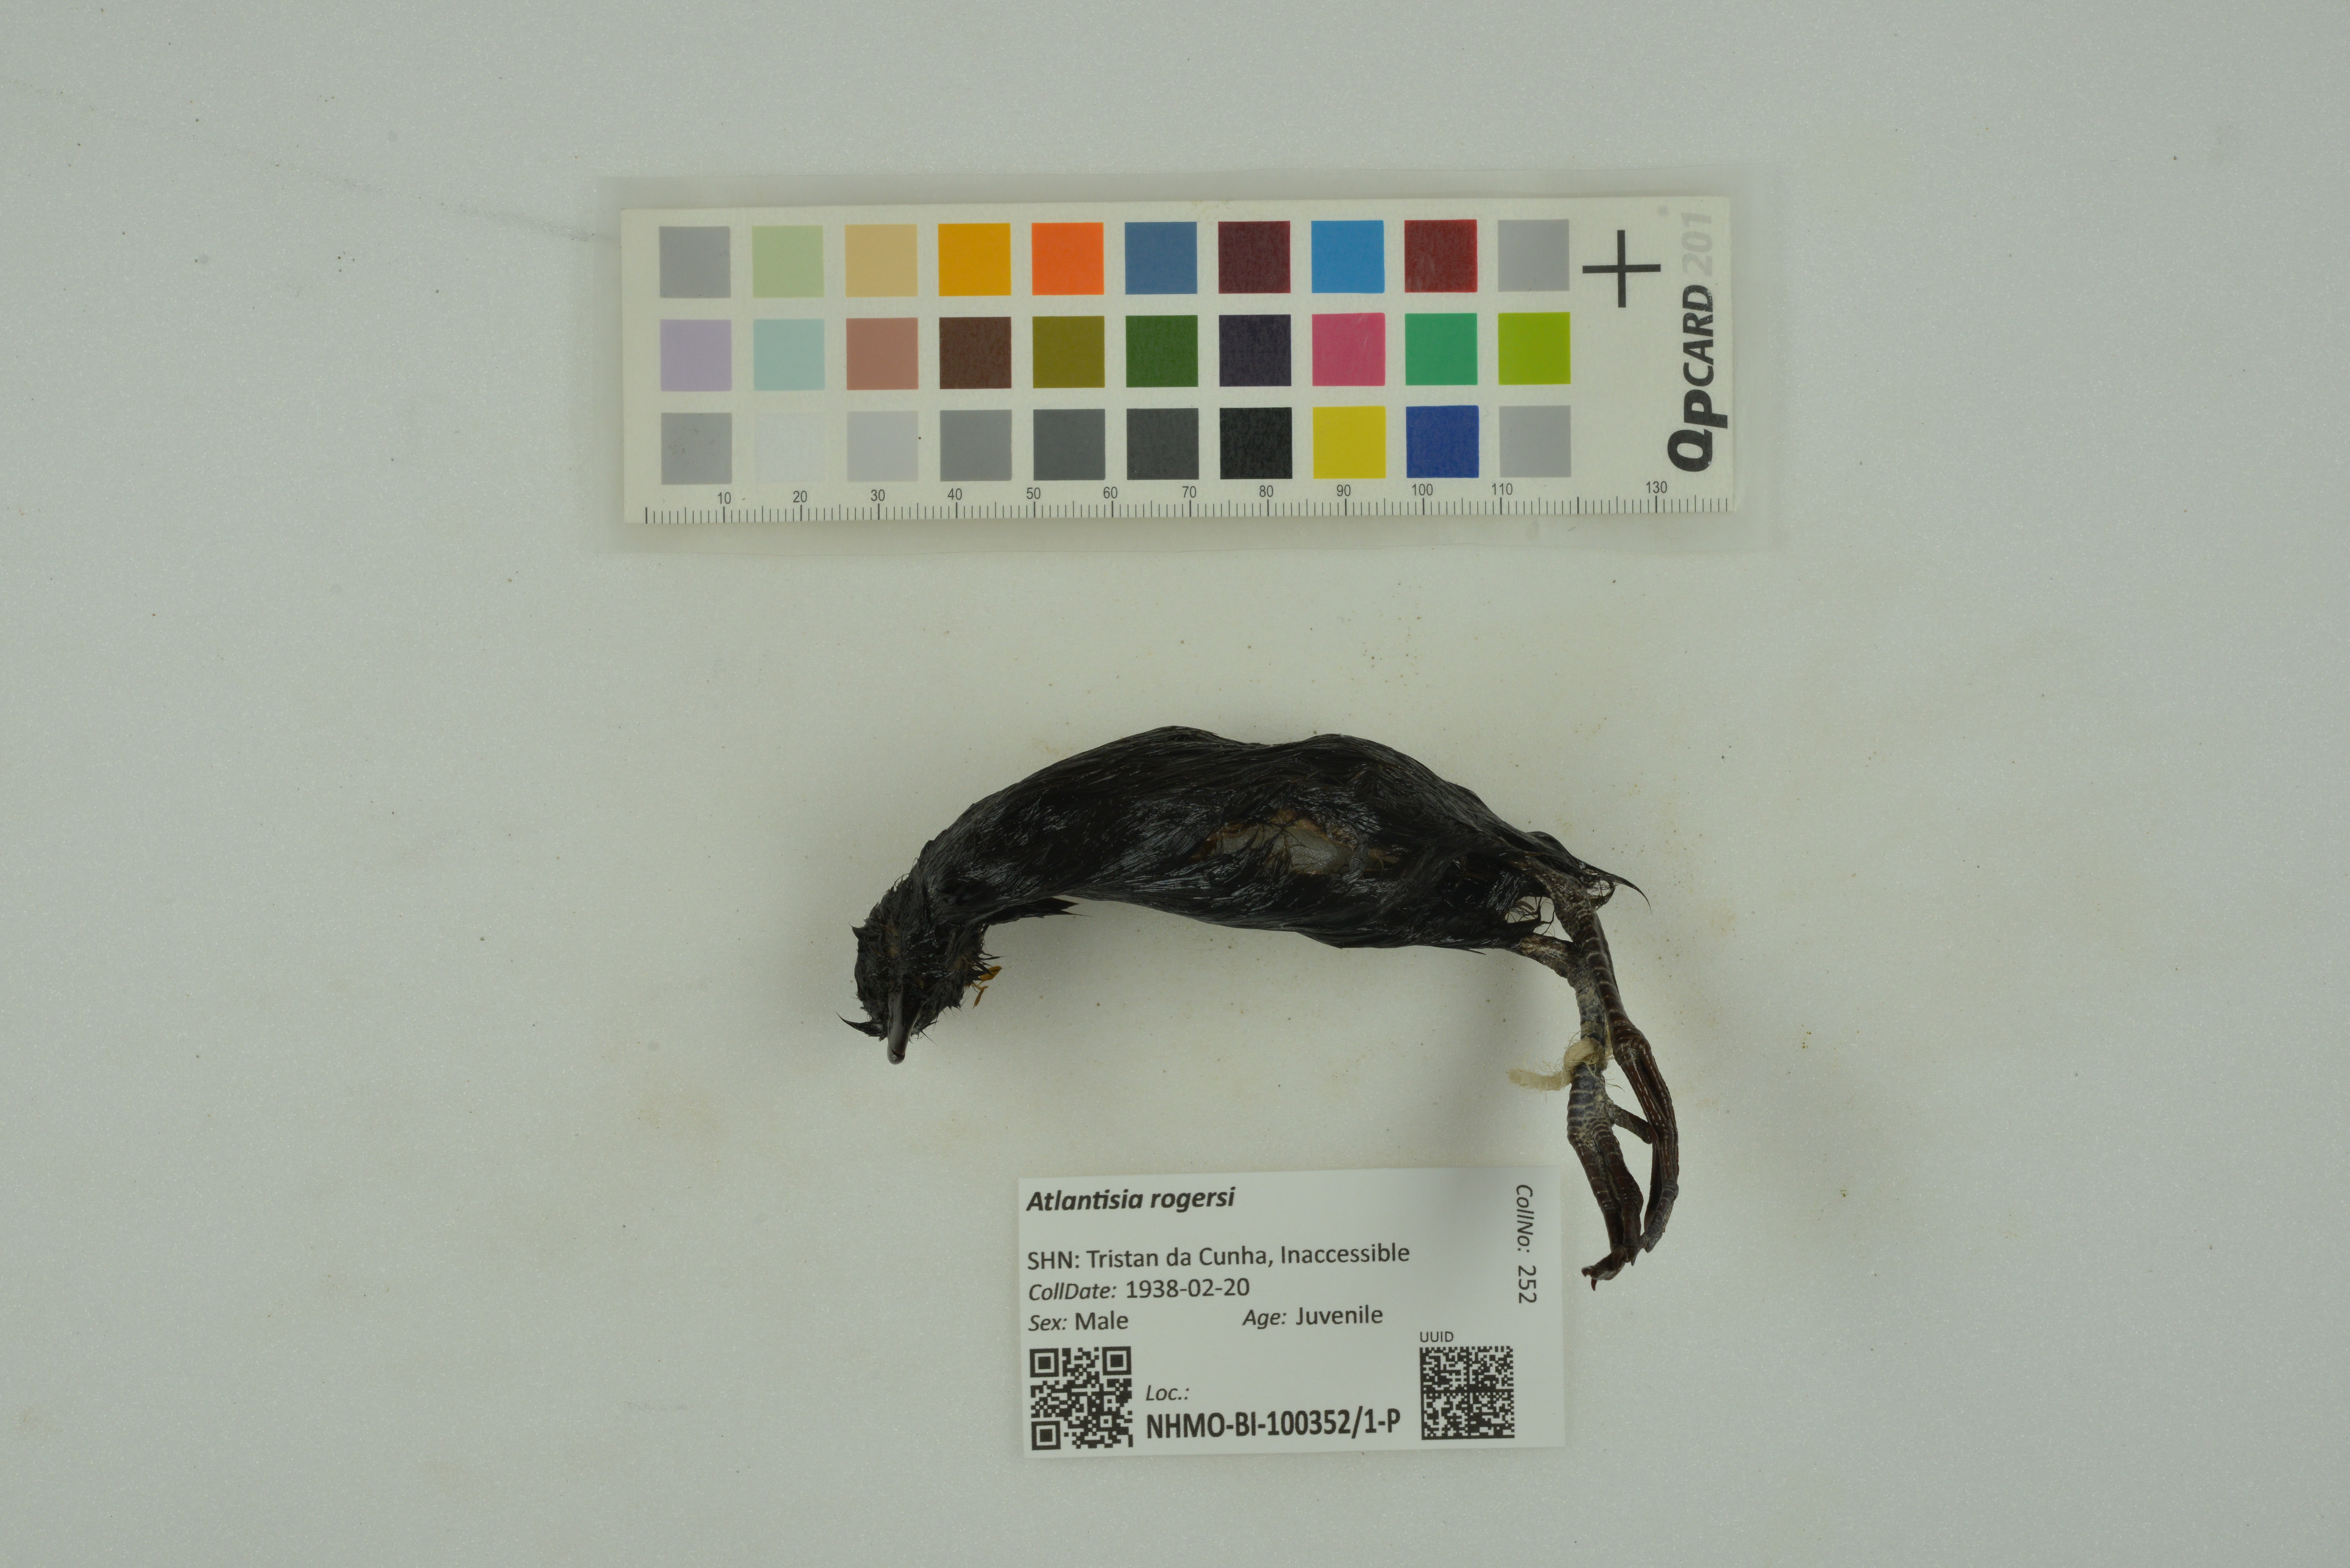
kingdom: Animalia
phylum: Chordata
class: Aves
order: Gruiformes
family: Rallidae
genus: Atlantisia
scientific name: Atlantisia rogersi
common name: Inaccessible island rail
